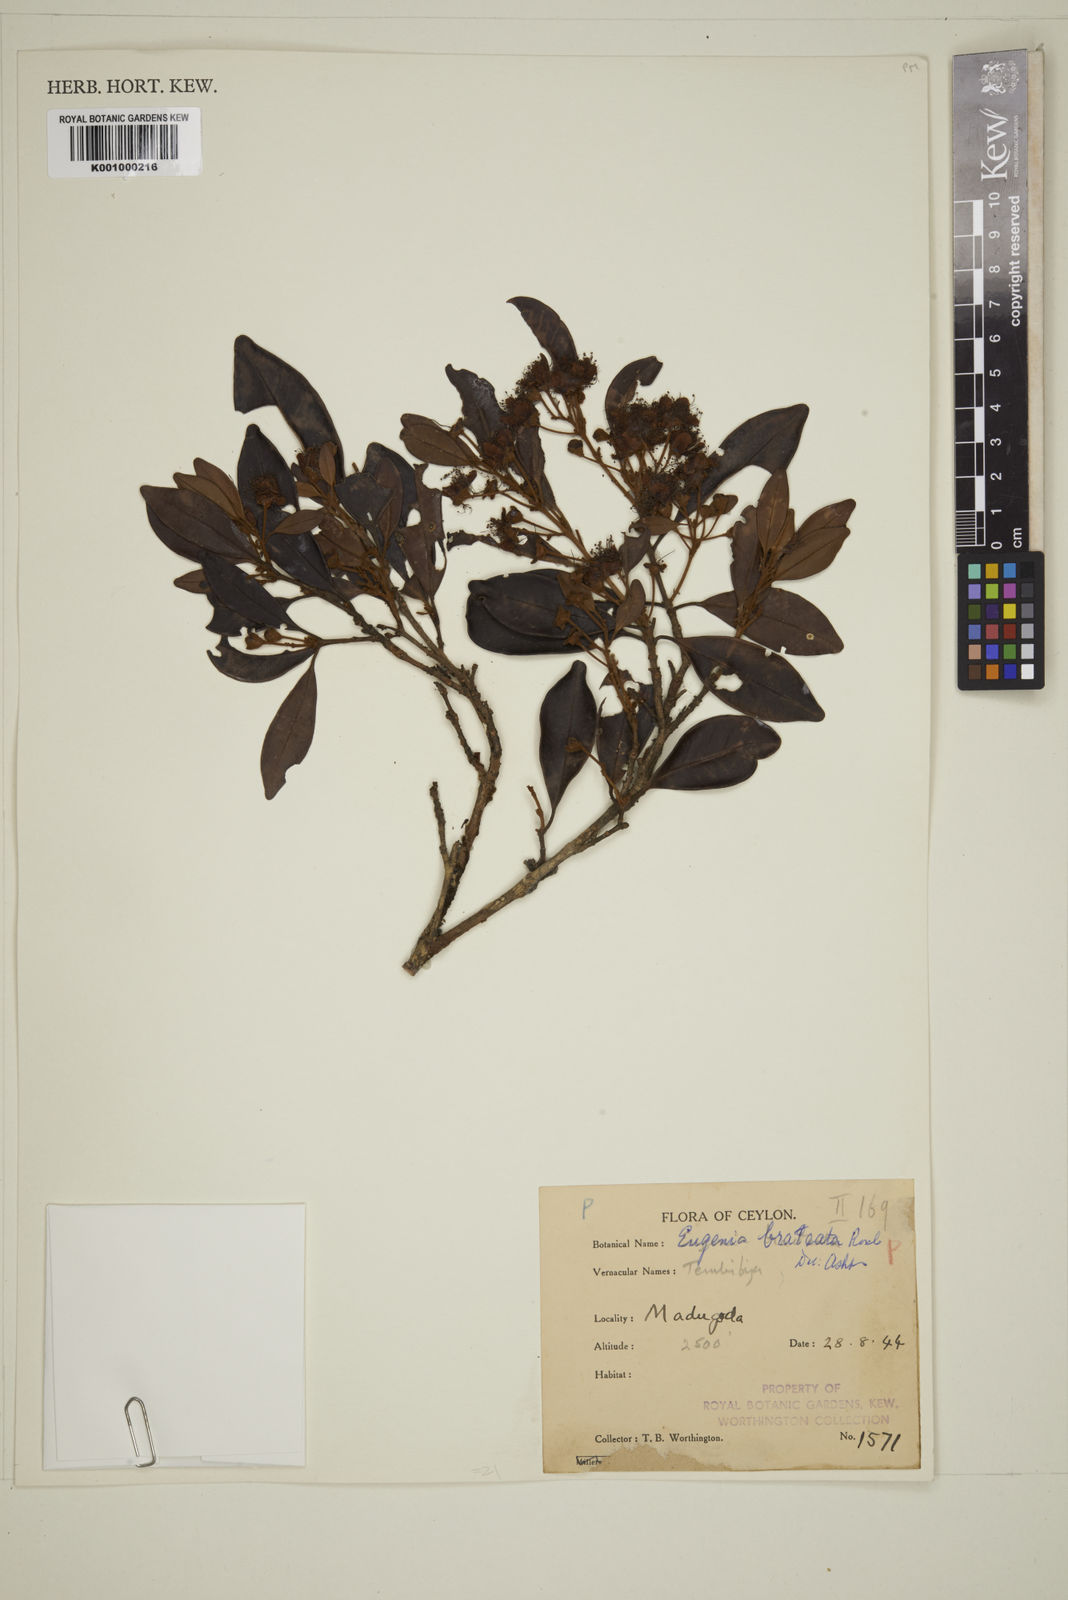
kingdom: Plantae
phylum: Tracheophyta
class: Magnoliopsida
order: Myrtales
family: Myrtaceae
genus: Eugenia
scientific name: Eugenia pseudopsidium
